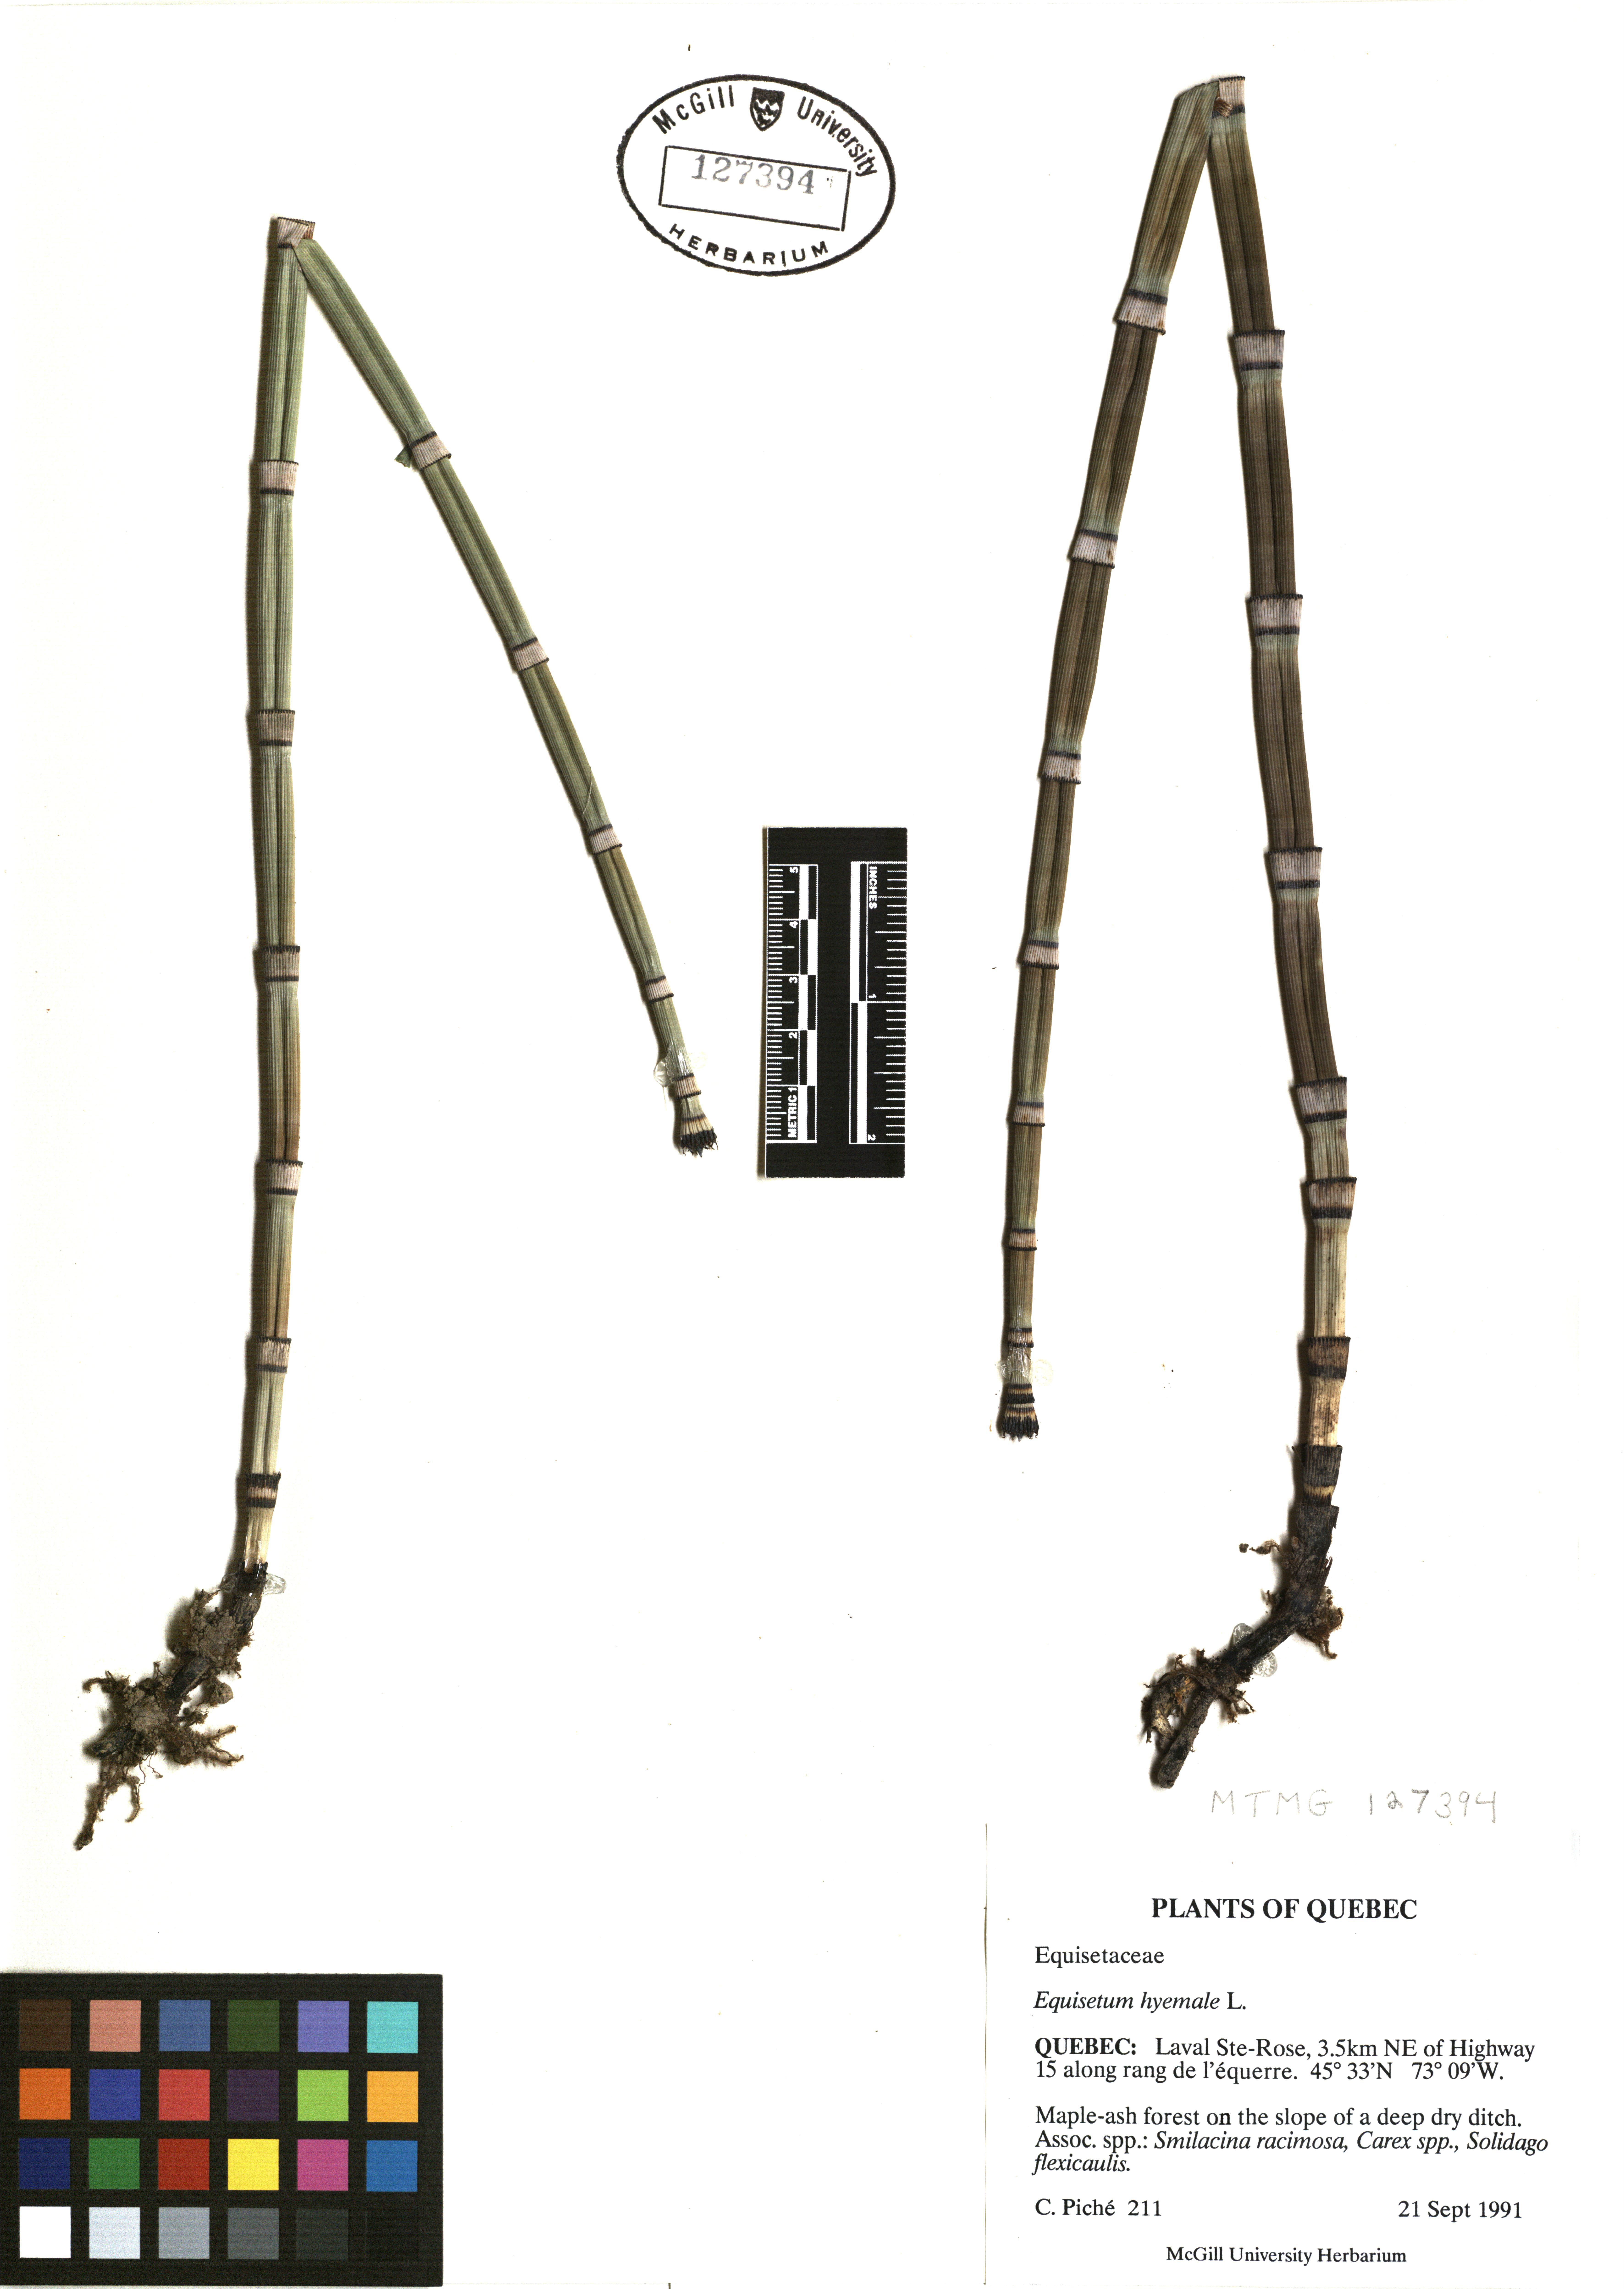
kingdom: Plantae
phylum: Tracheophyta
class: Polypodiopsida
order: Equisetales
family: Equisetaceae
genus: Equisetum
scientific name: Equisetum hyemale
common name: Rough horsetail
